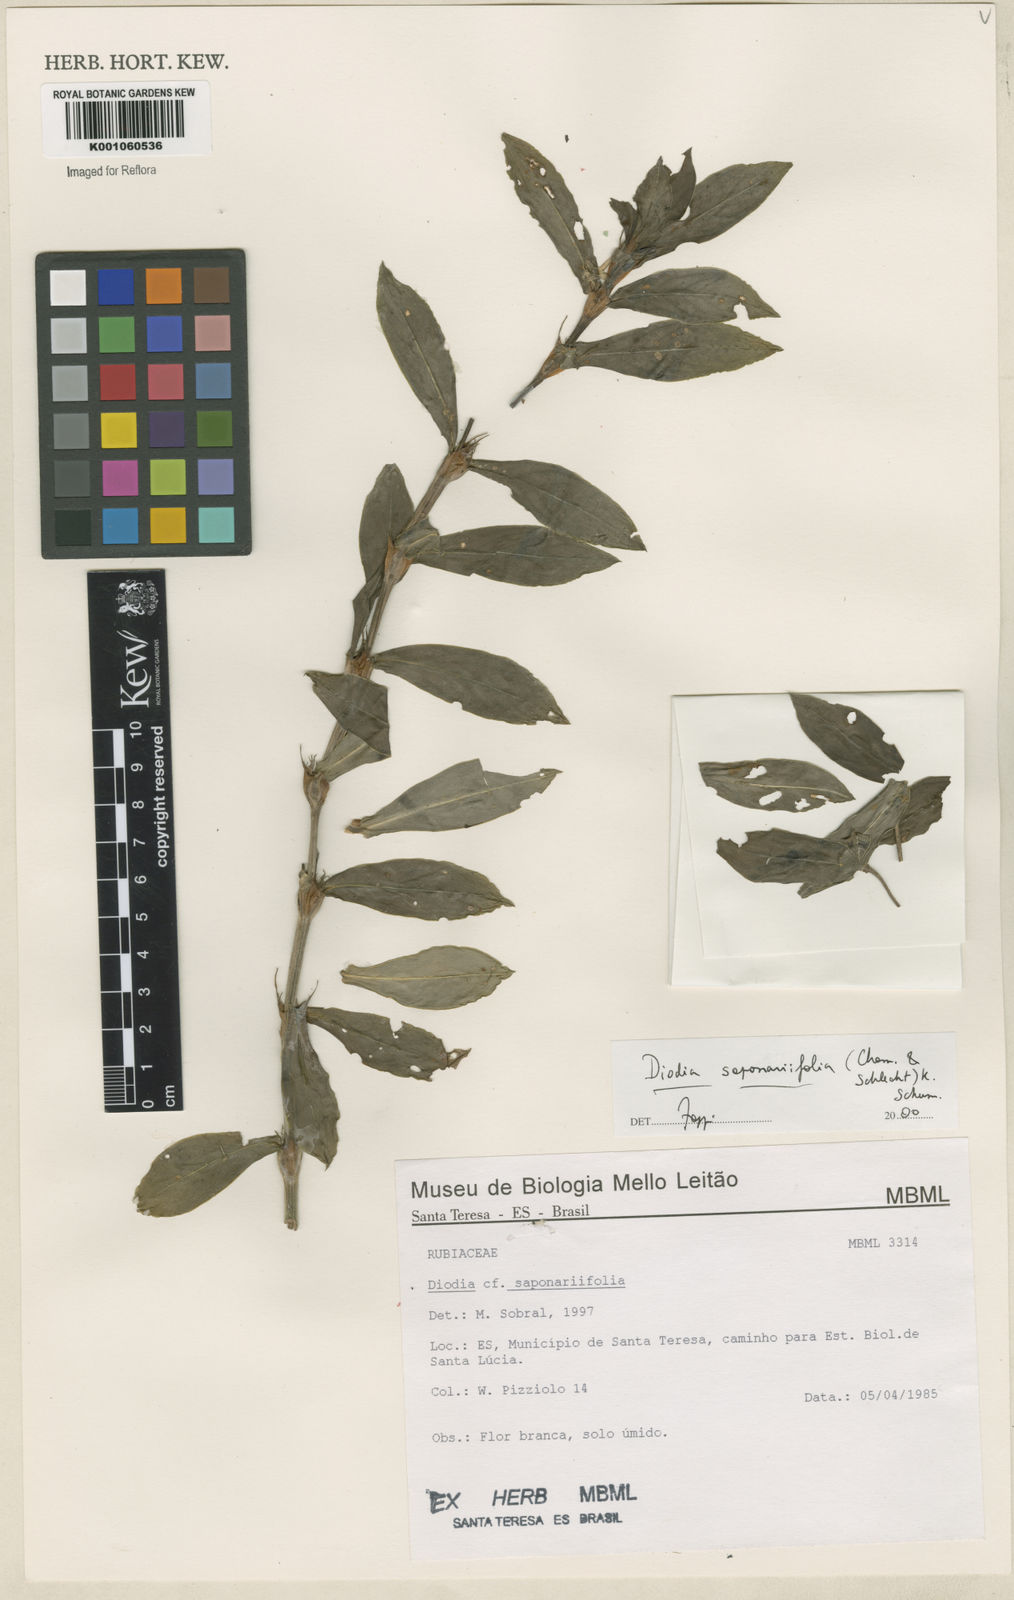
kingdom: Plantae
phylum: Tracheophyta
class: Magnoliopsida
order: Gentianales
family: Rubiaceae
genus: Diodia
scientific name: Diodia saponariifolia
